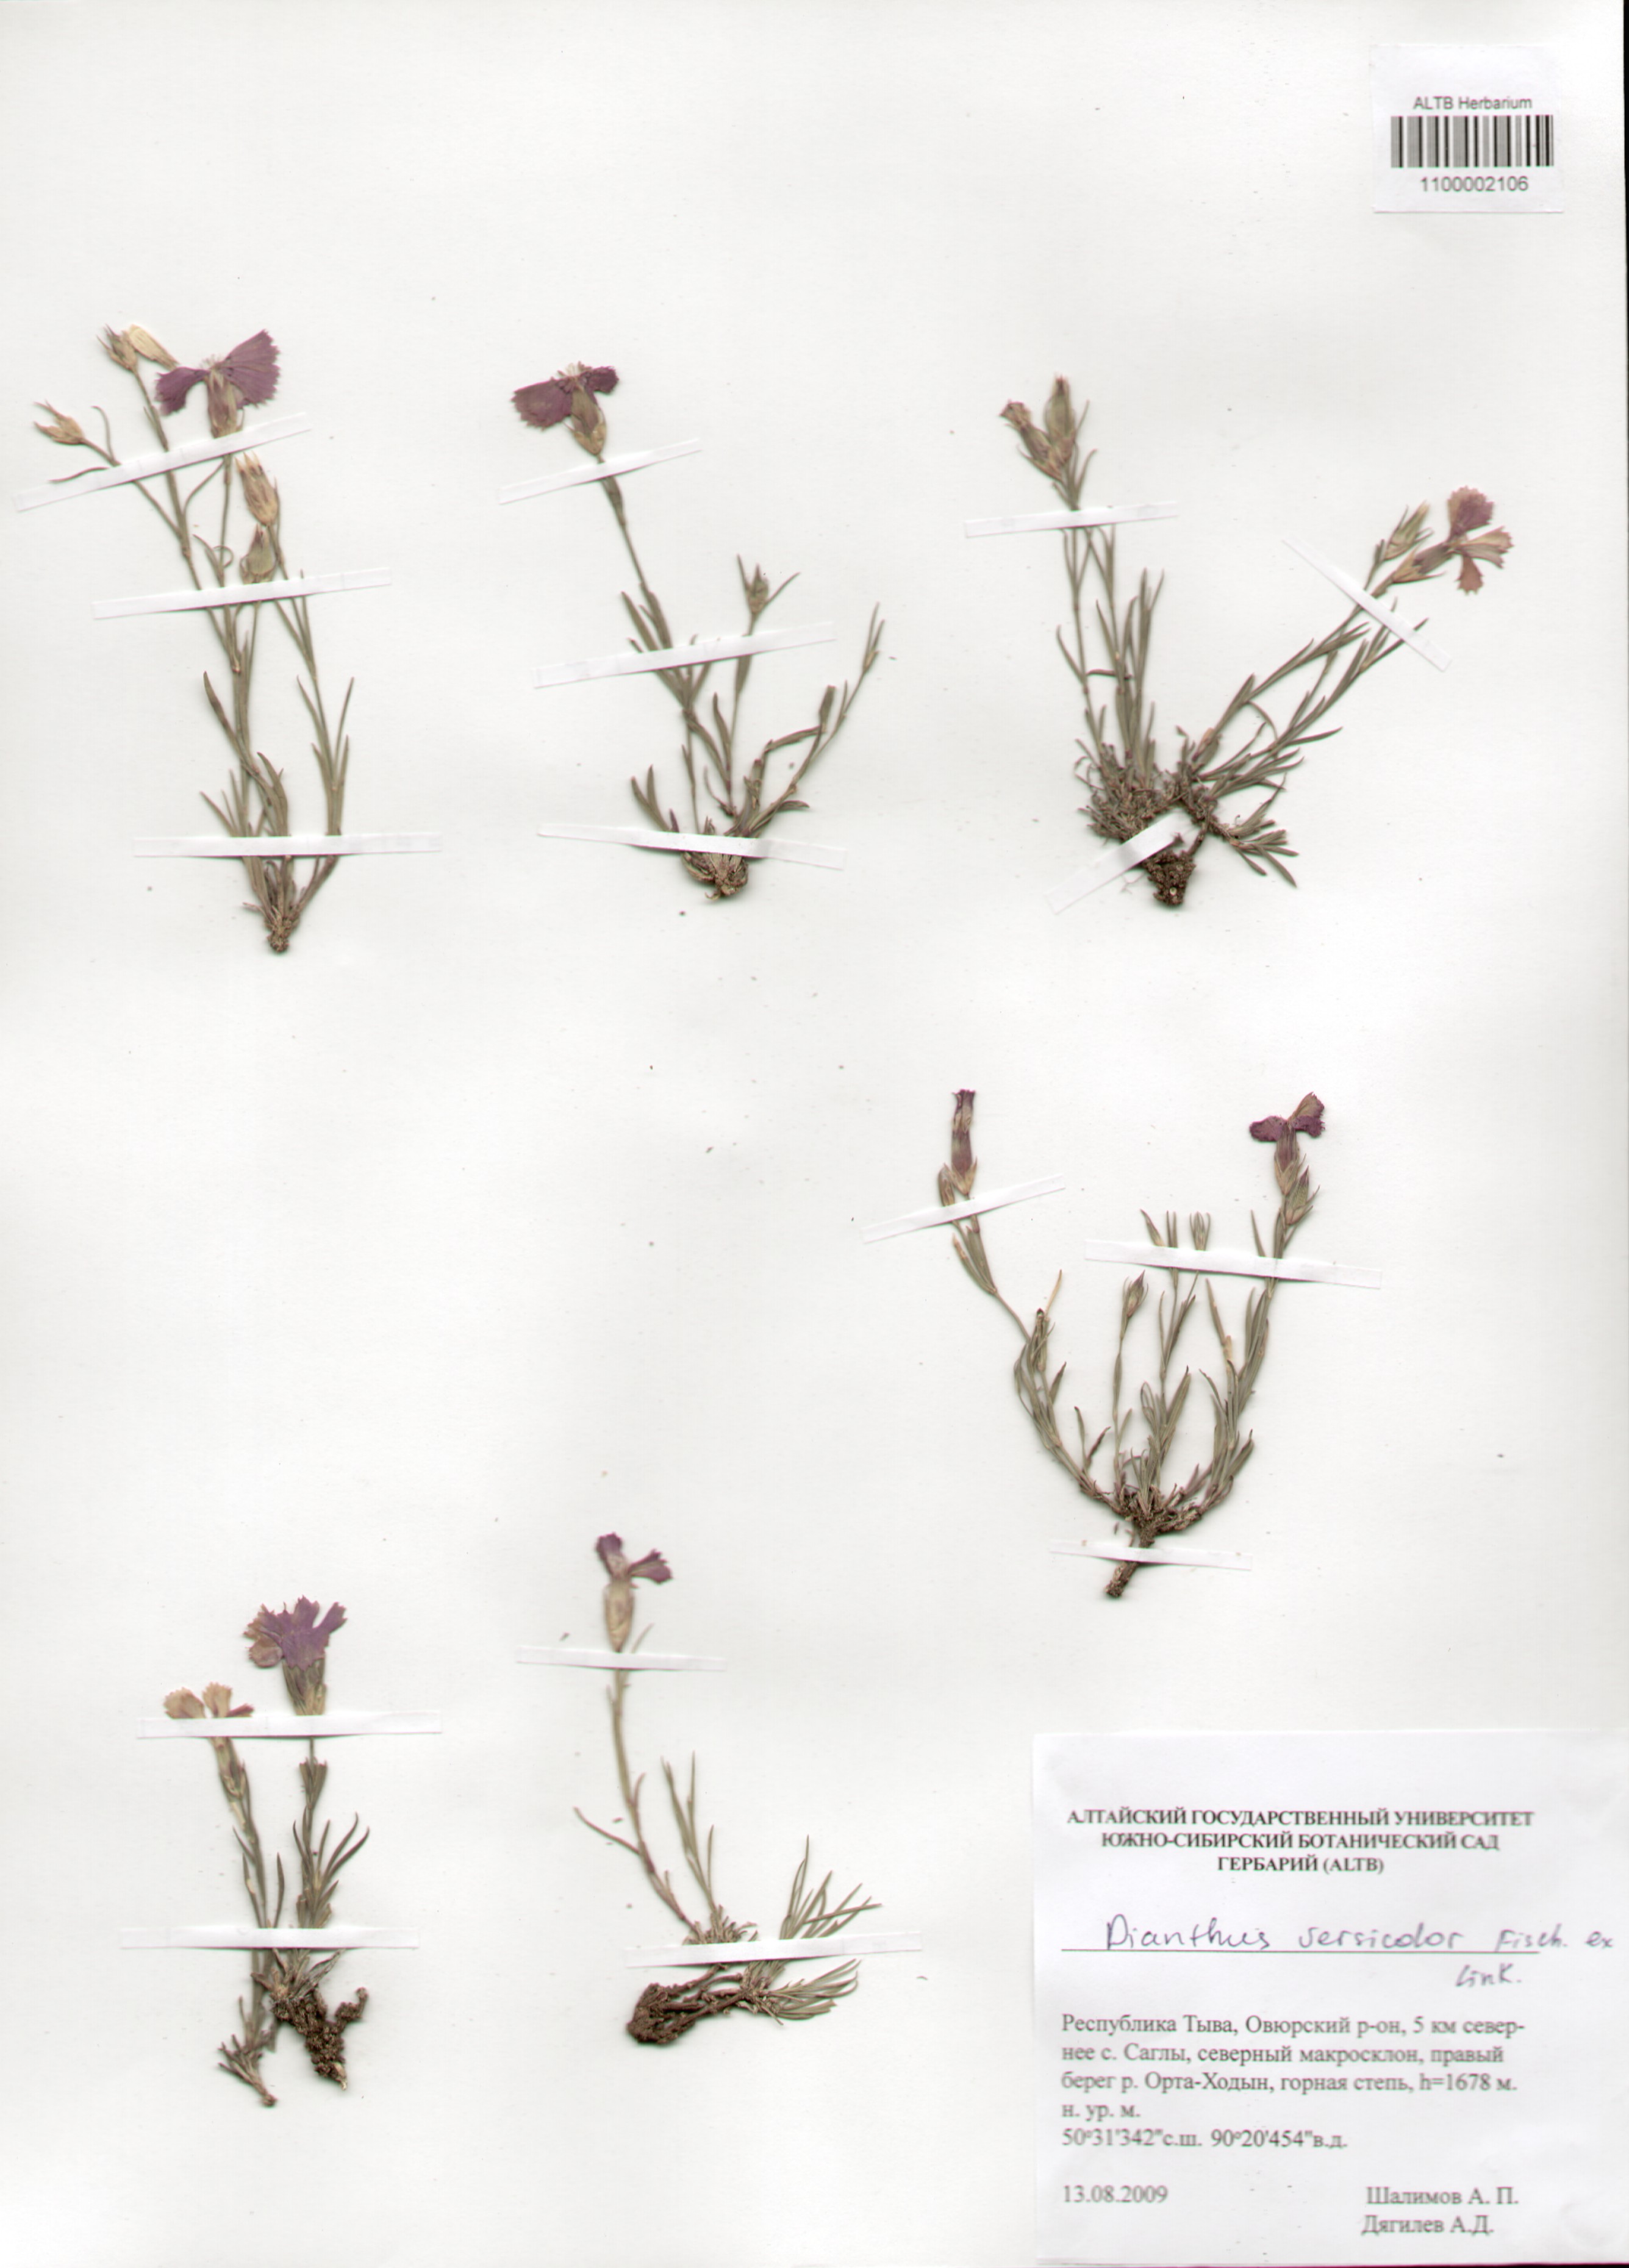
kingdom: Plantae
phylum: Tracheophyta
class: Magnoliopsida
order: Caryophyllales
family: Caryophyllaceae
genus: Dianthus
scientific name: Dianthus chinensis
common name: Rainbow pink
